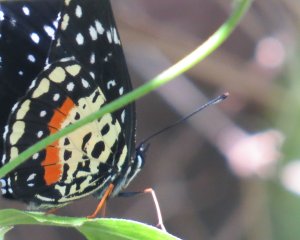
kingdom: Animalia
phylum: Arthropoda
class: Insecta
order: Lepidoptera
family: Nymphalidae
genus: Chlosyne
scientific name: Chlosyne janais
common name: Crimson Patch
